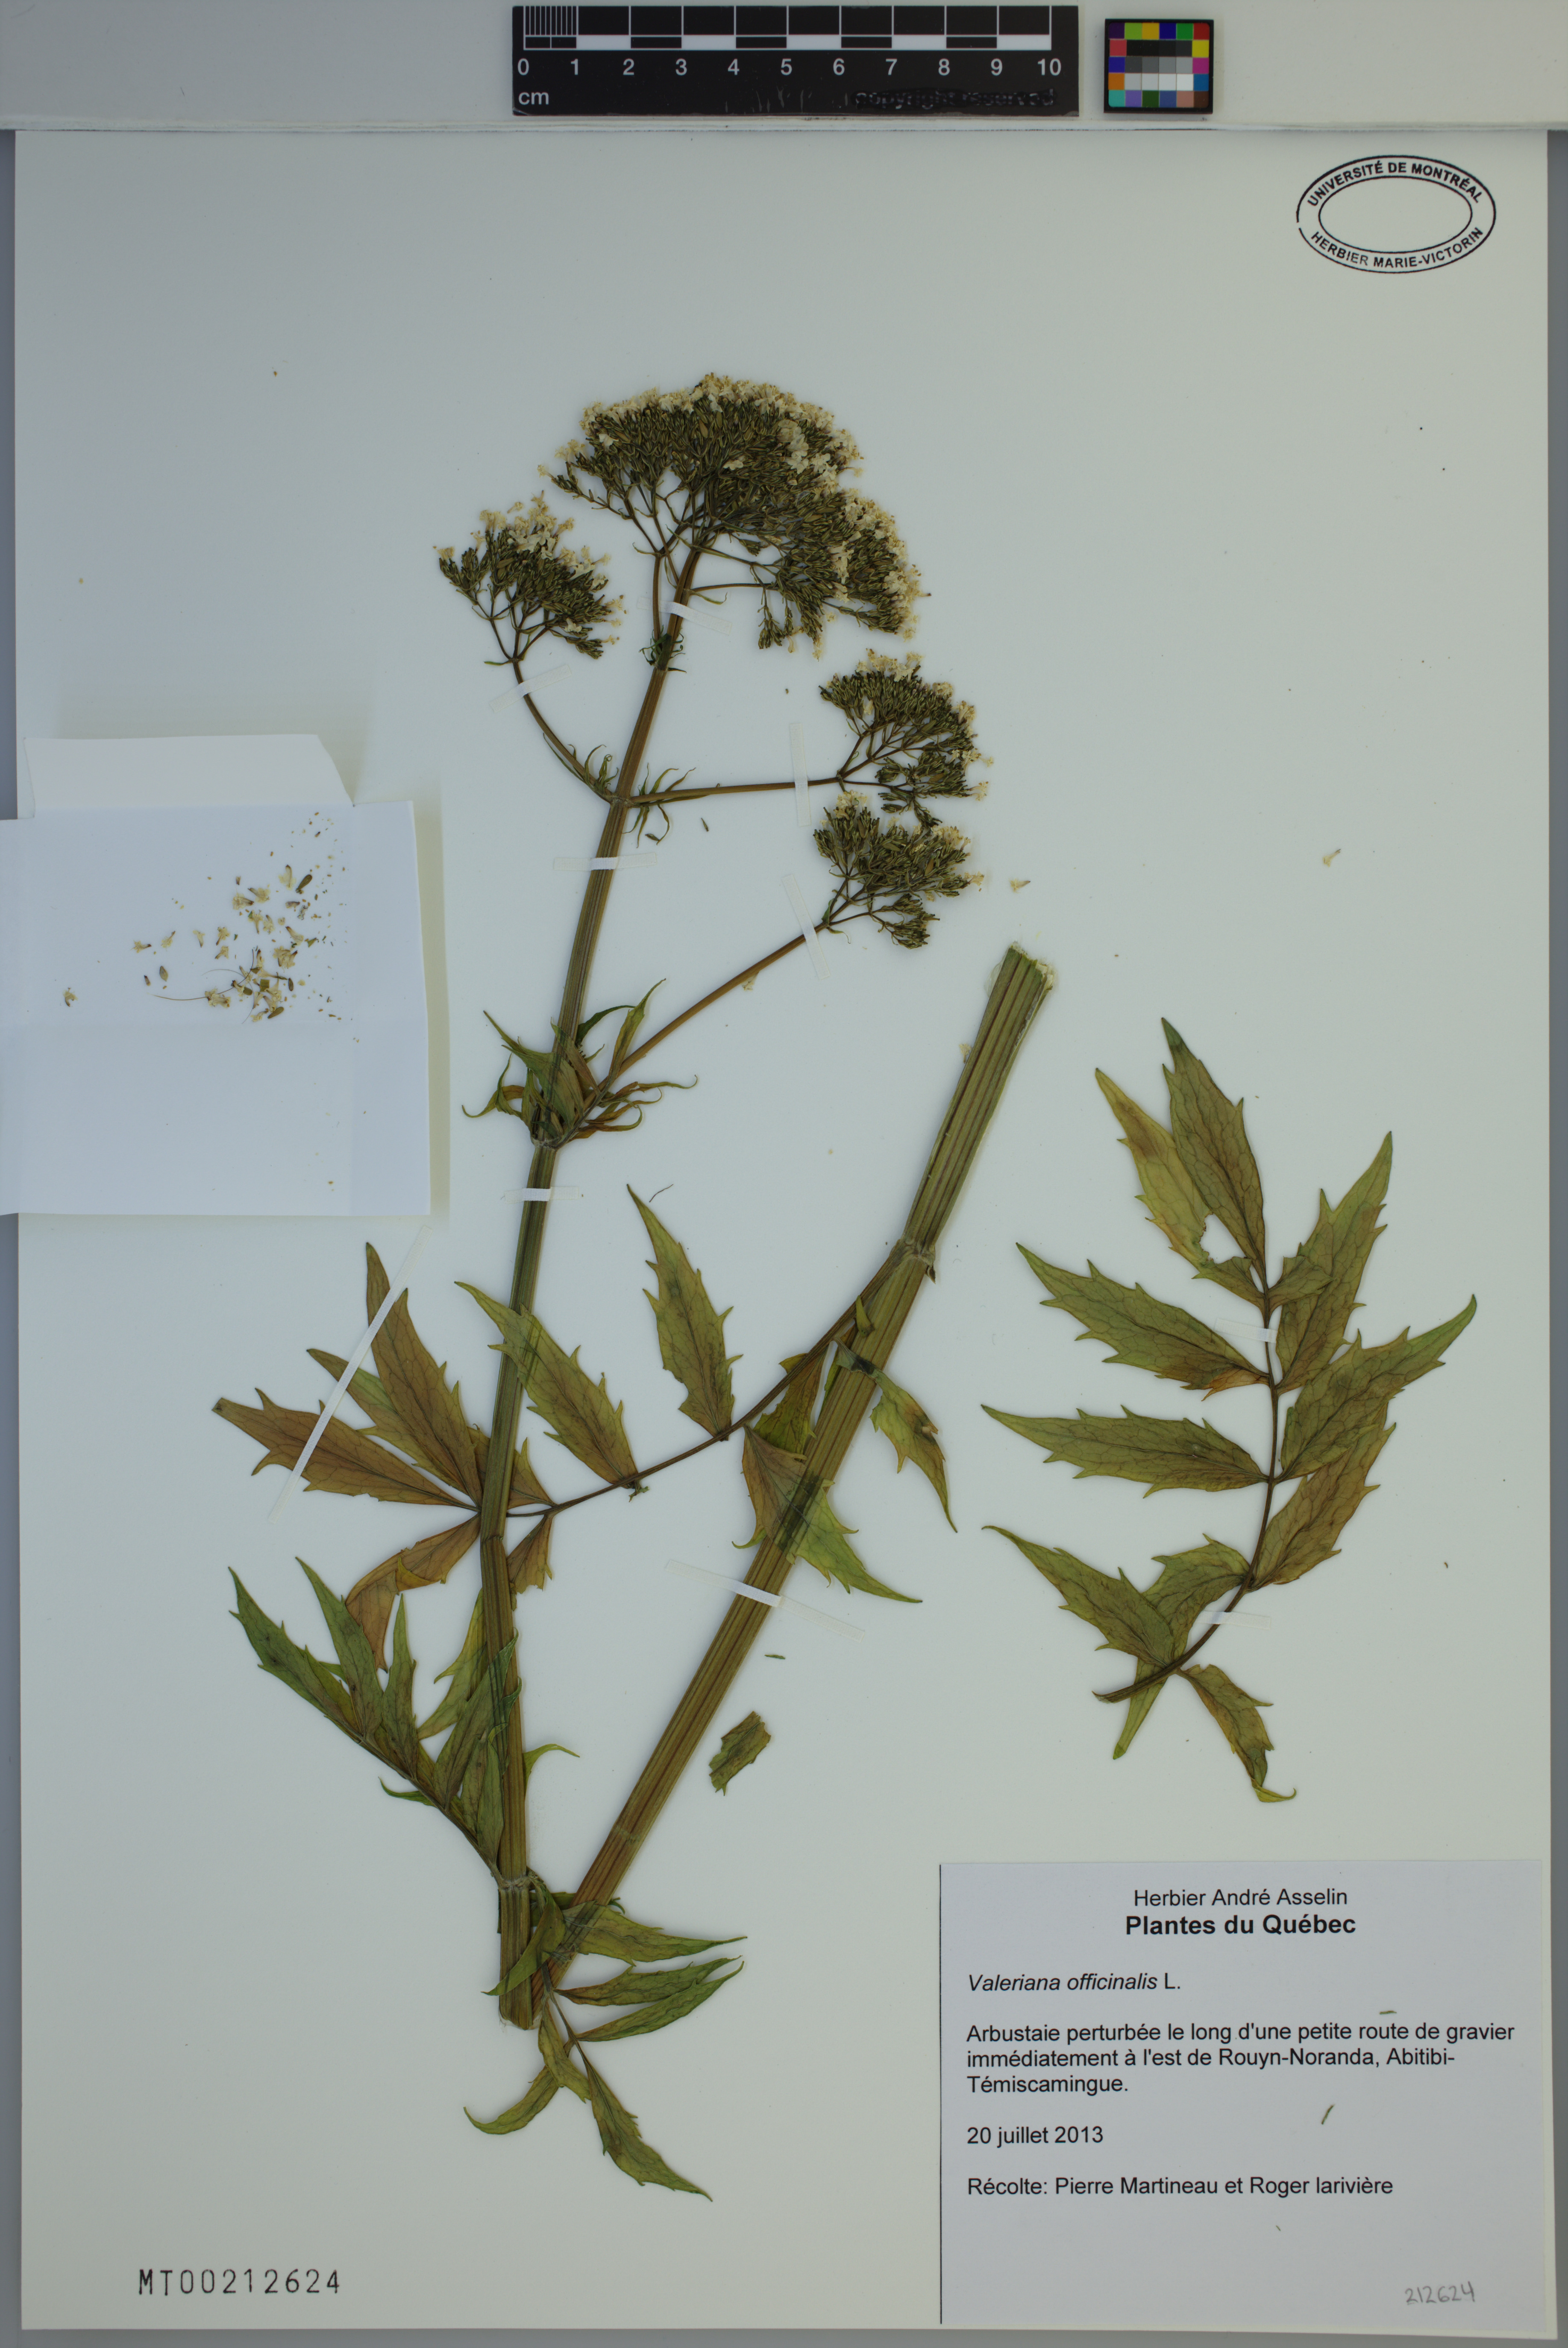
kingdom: Plantae
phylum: Tracheophyta
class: Magnoliopsida
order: Dipsacales
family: Caprifoliaceae
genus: Valeriana
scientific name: Valeriana officinalis
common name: Common valerian
